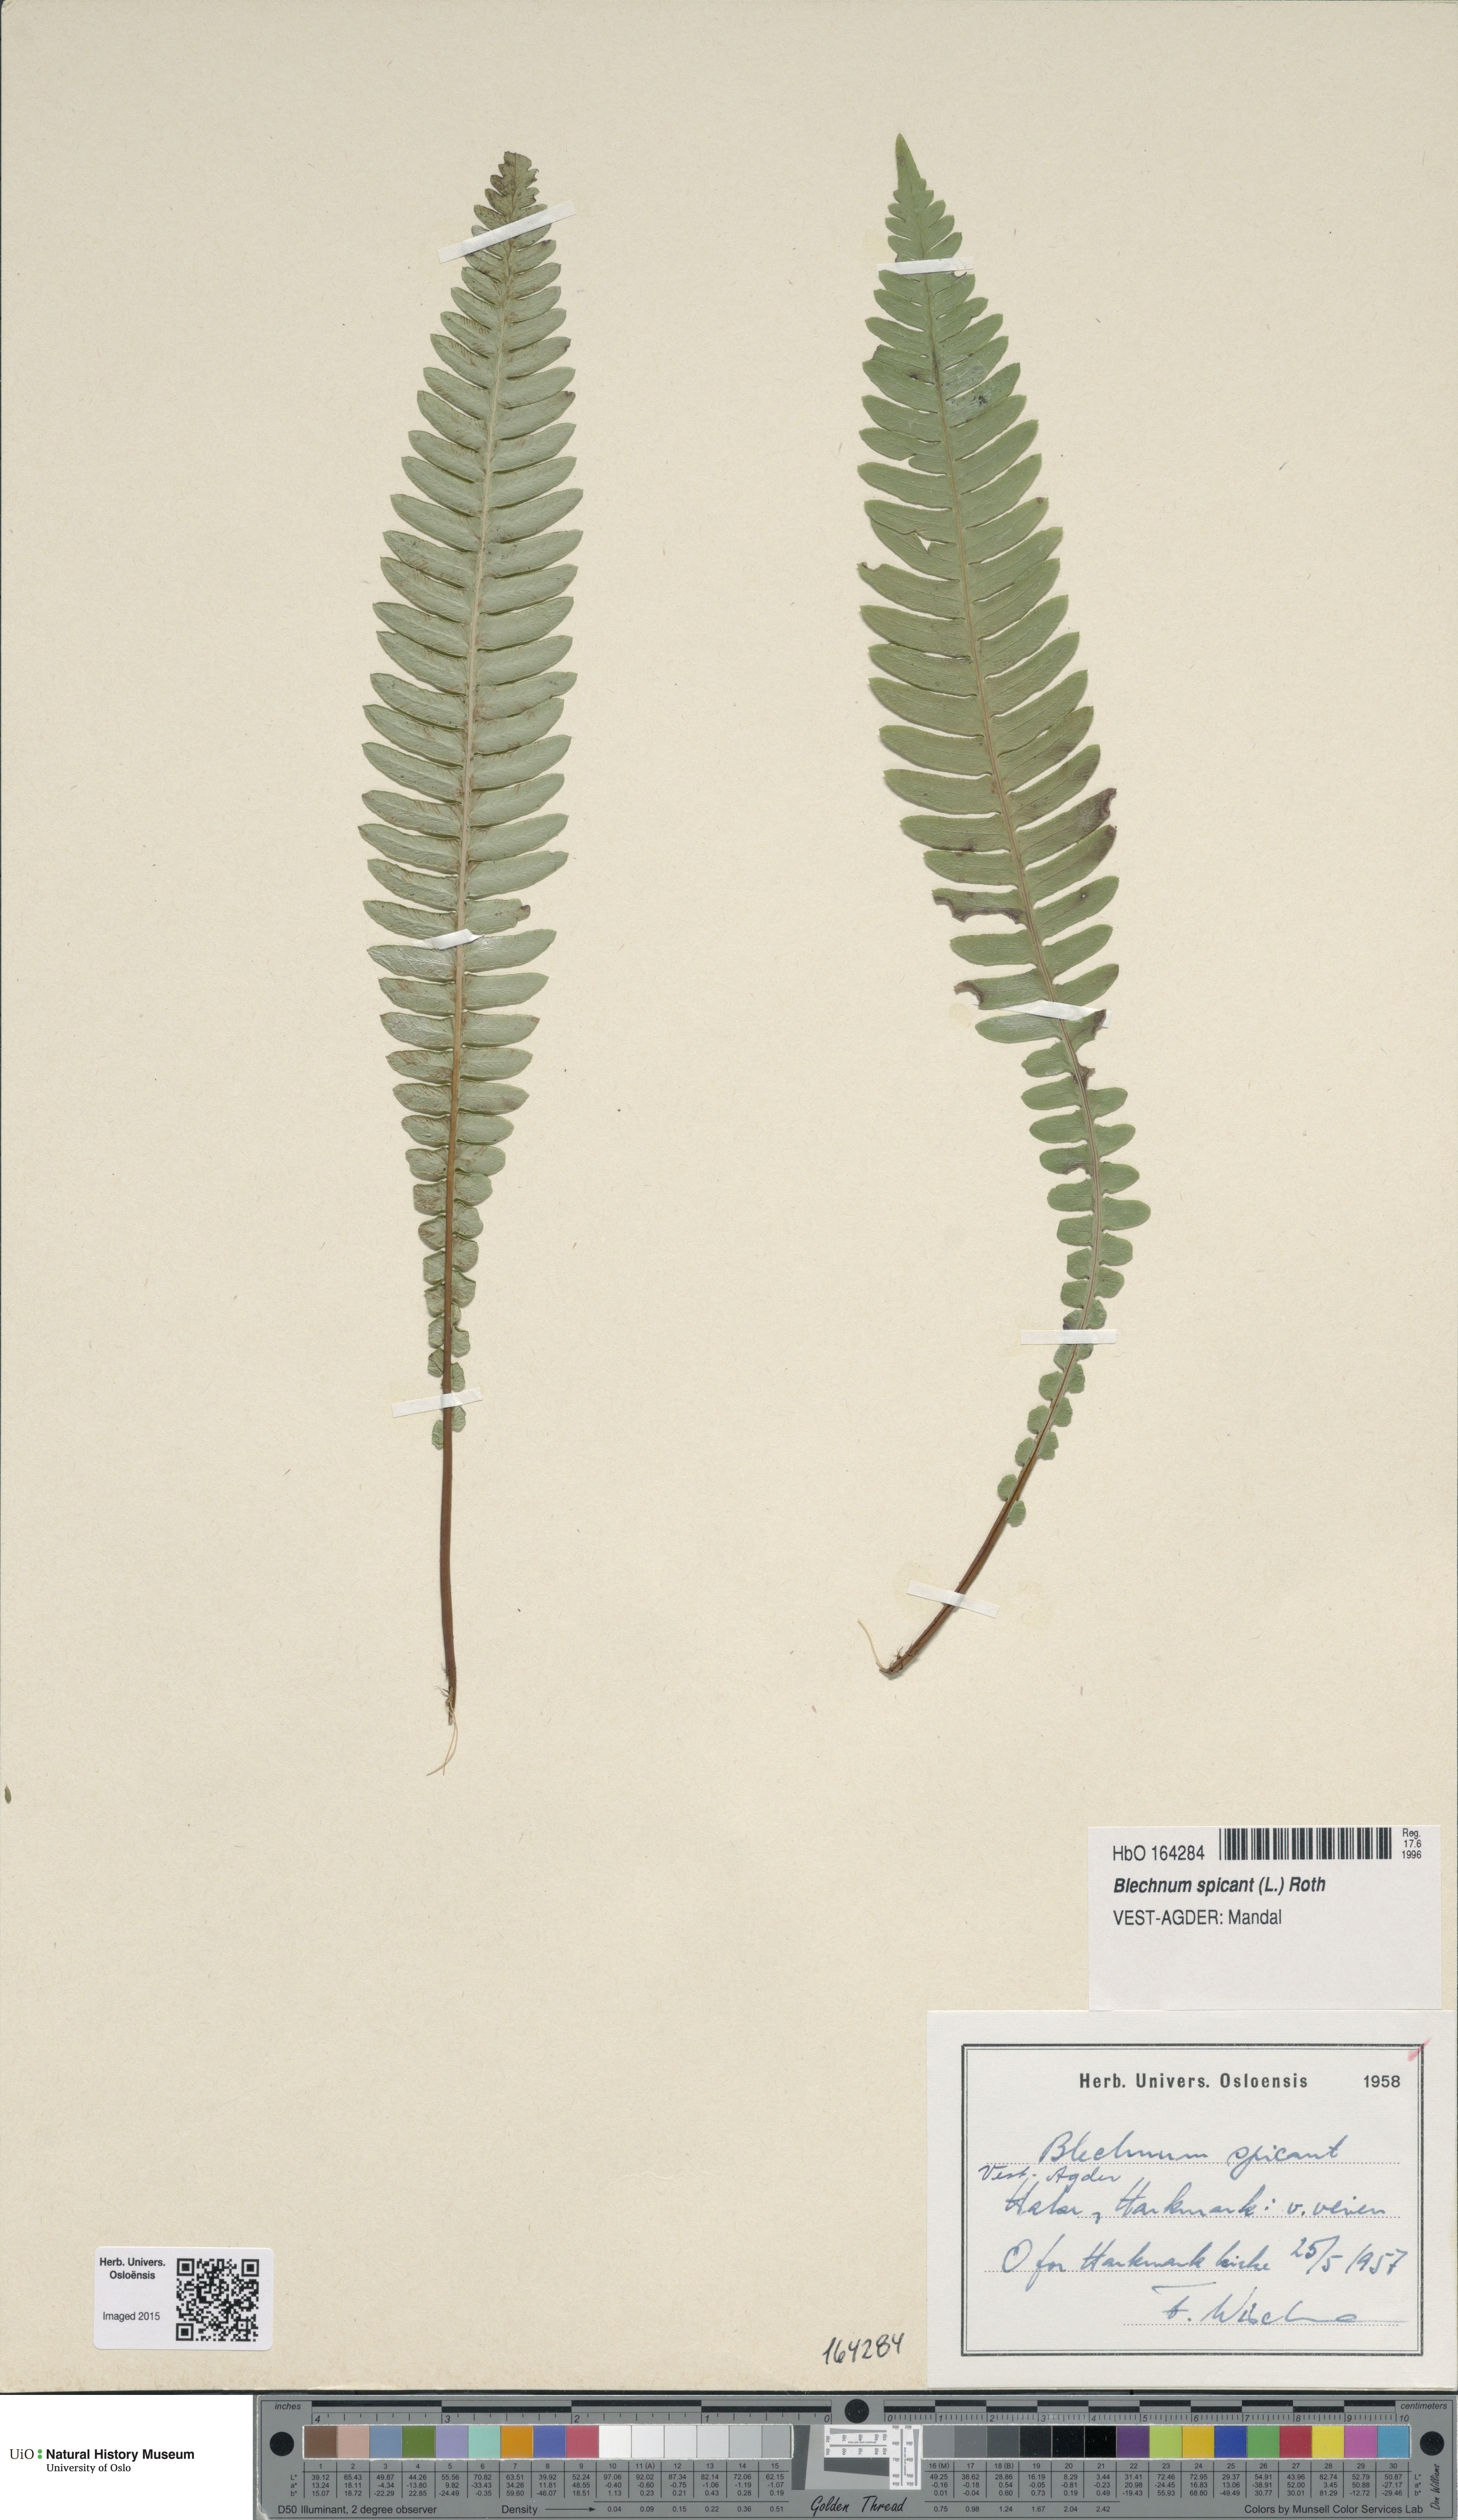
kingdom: Plantae
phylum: Tracheophyta
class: Polypodiopsida
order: Polypodiales
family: Blechnaceae
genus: Struthiopteris
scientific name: Struthiopteris spicant
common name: Deer fern
